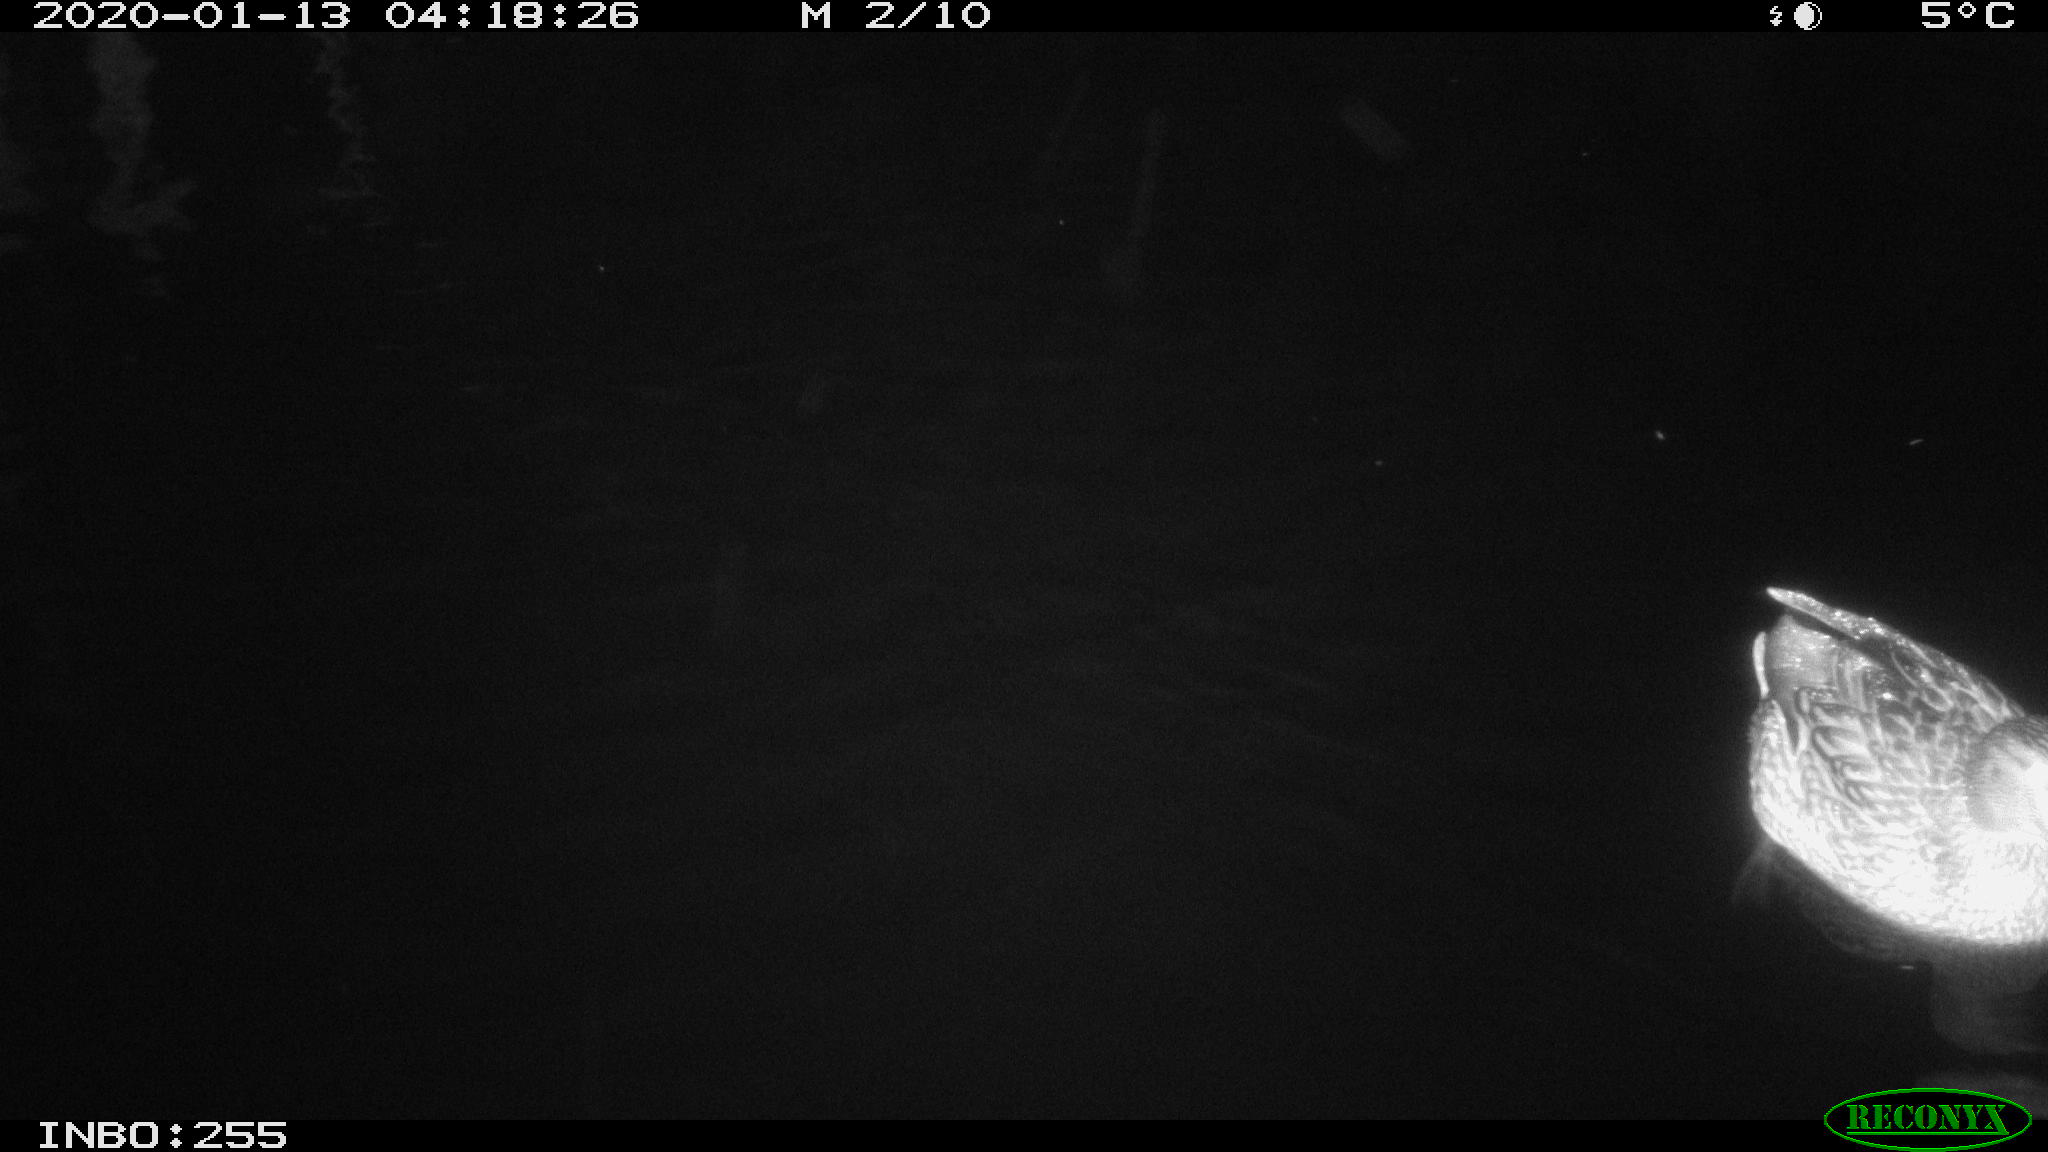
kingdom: Animalia
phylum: Chordata
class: Aves
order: Anseriformes
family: Anatidae
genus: Anas
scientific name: Anas platyrhynchos
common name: Mallard
